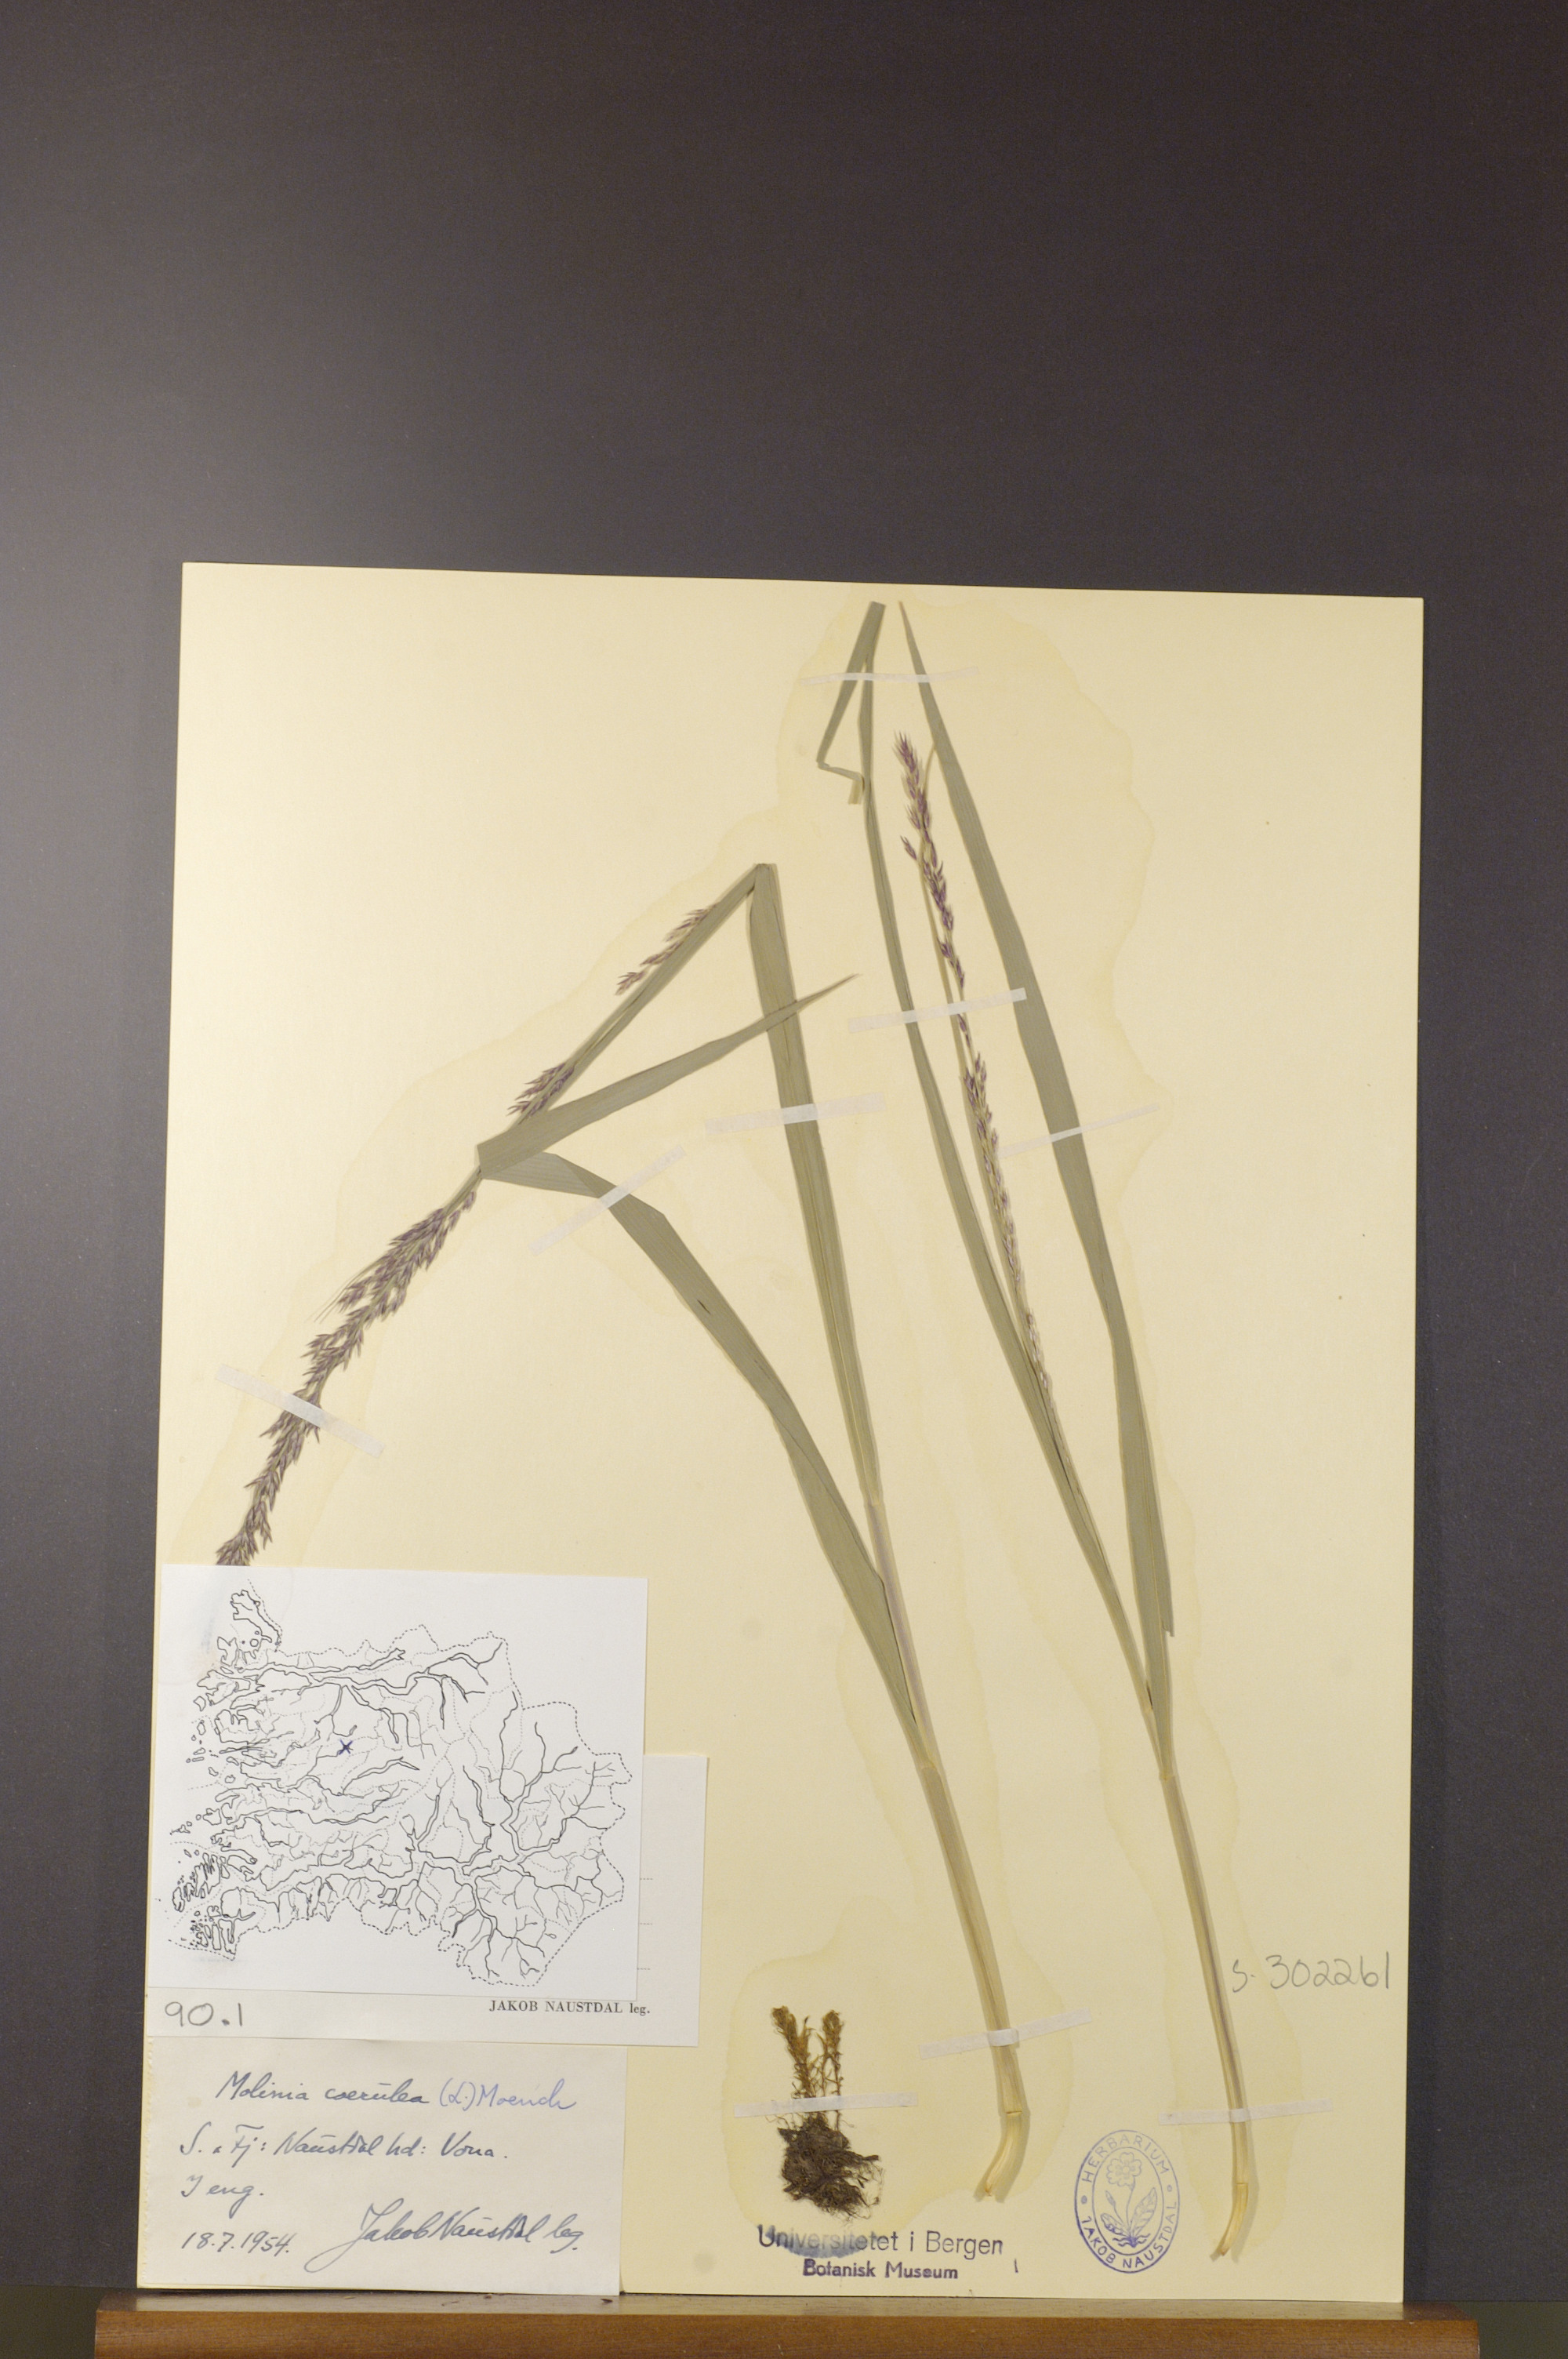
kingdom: Plantae
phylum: Tracheophyta
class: Liliopsida
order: Poales
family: Poaceae
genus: Molinia
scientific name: Molinia caerulea
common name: Purple moor-grass
